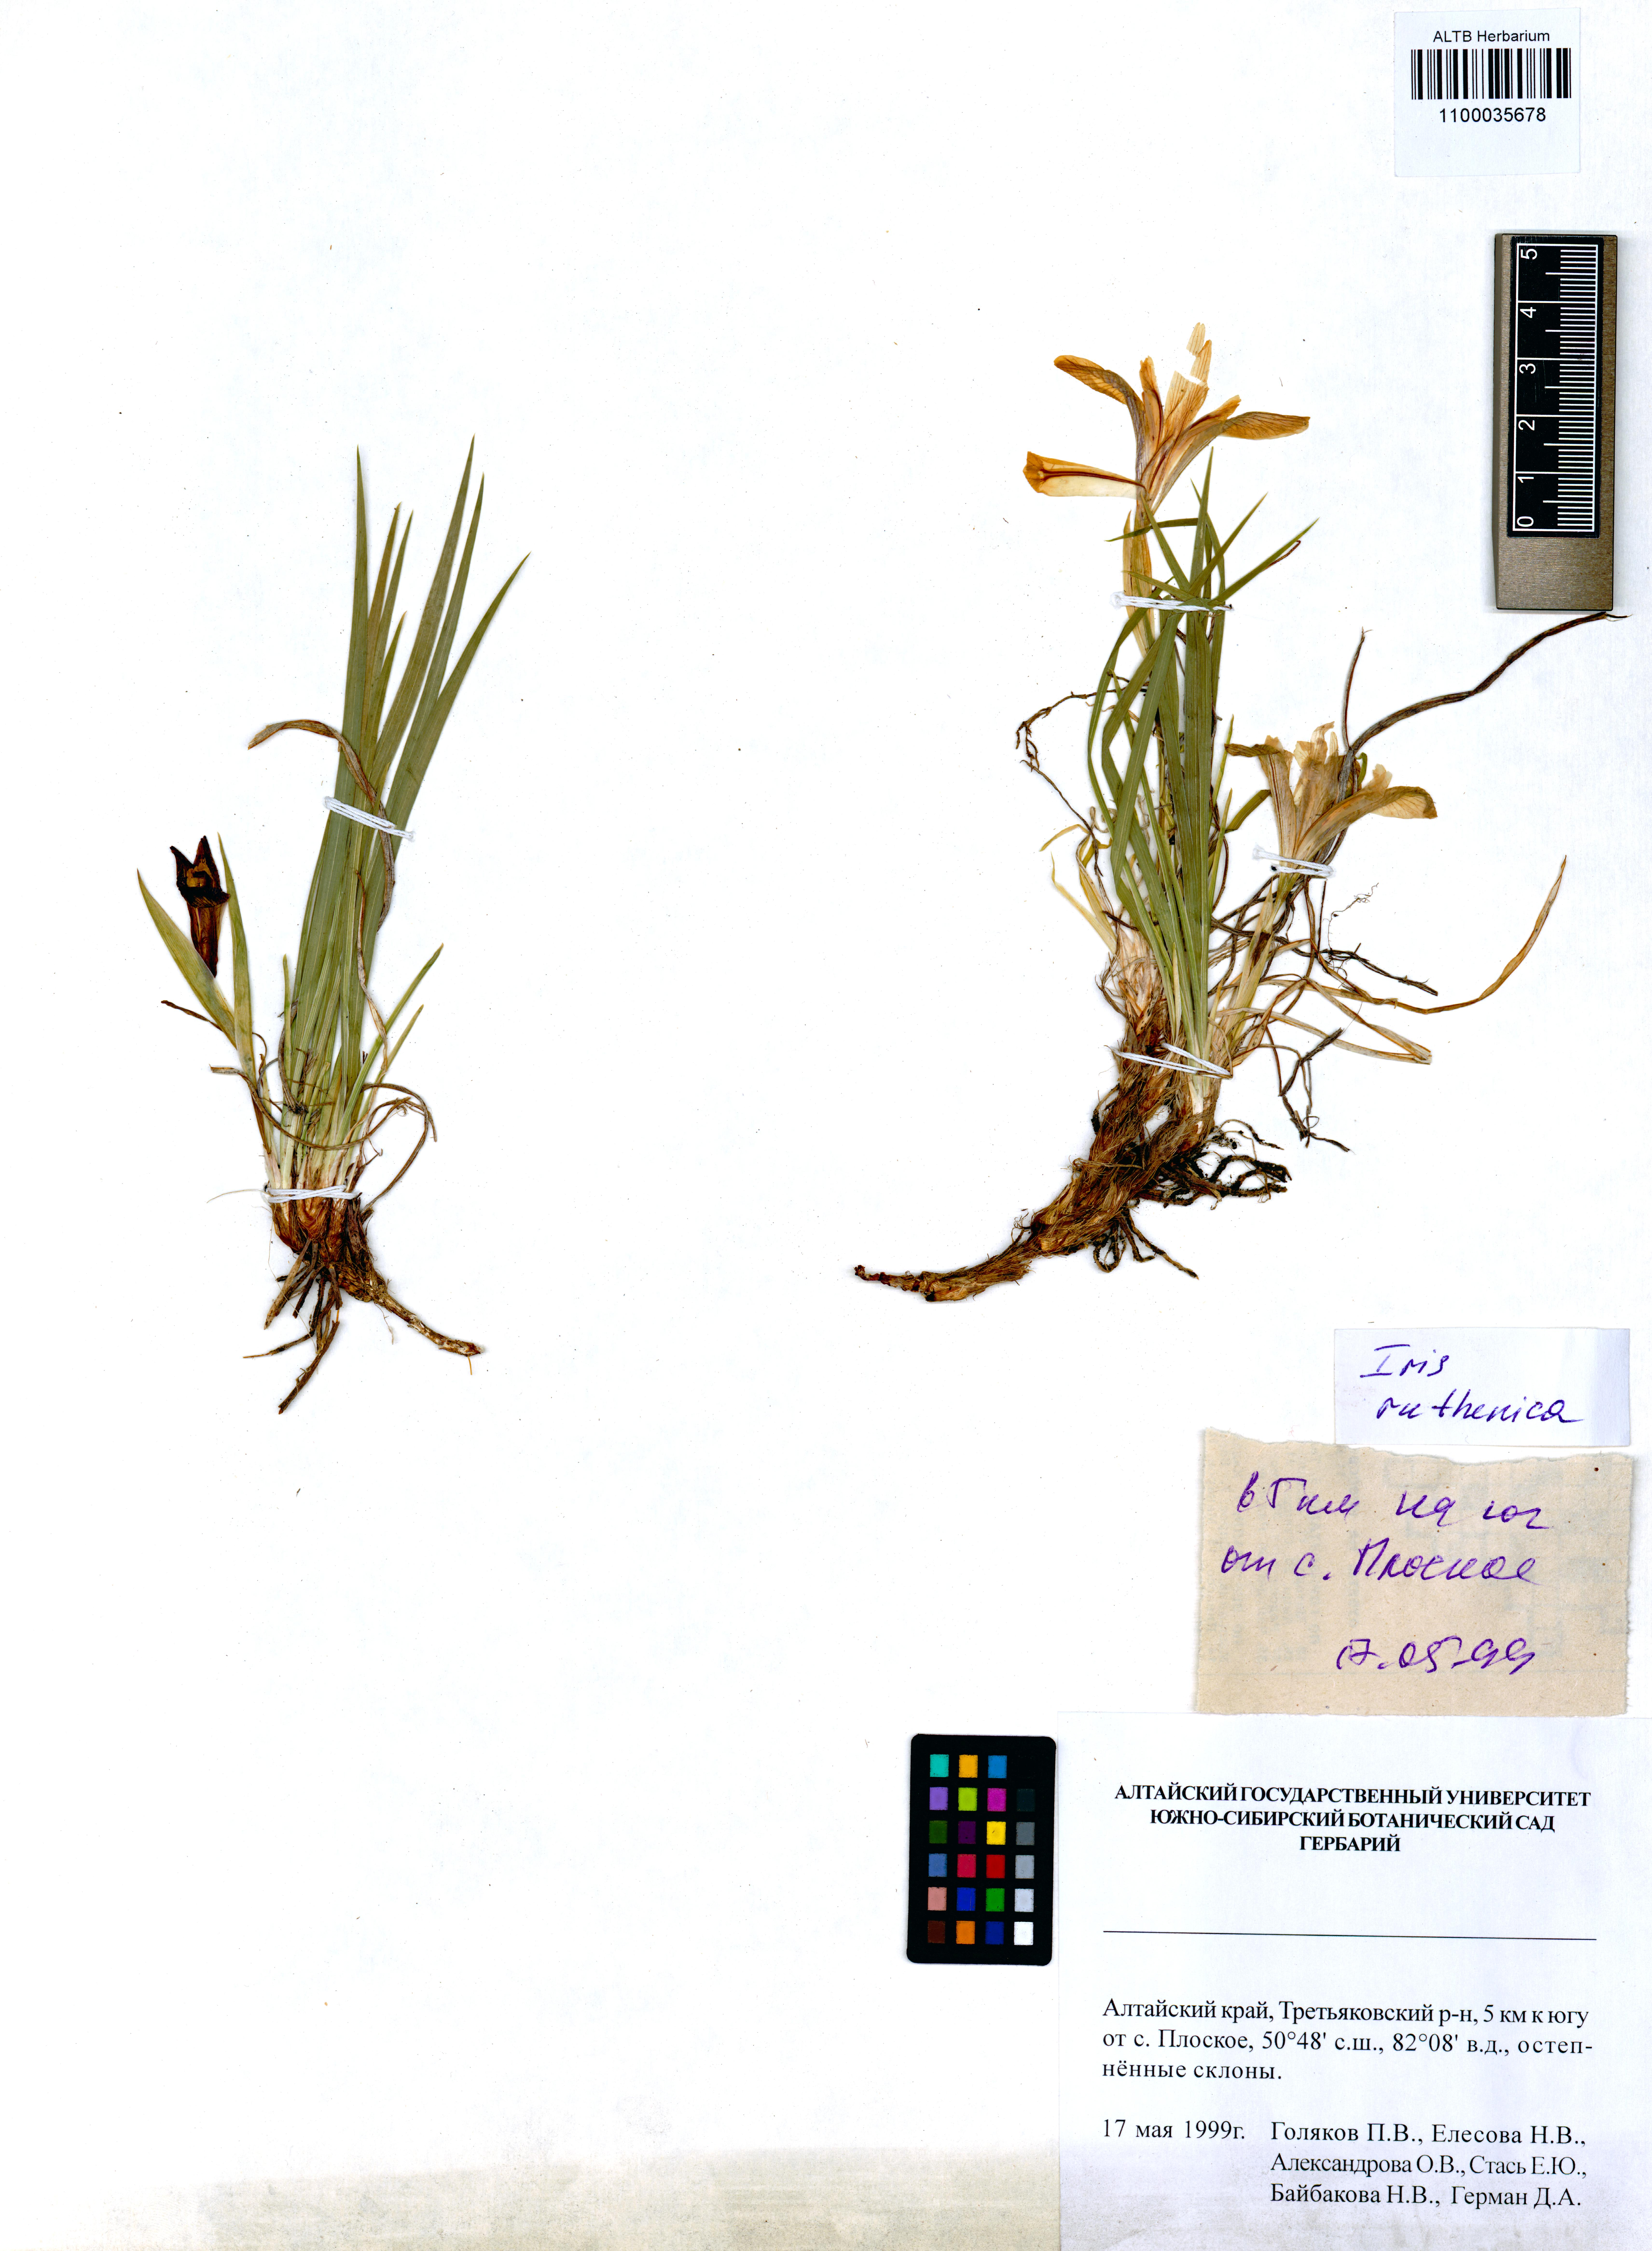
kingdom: Plantae
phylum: Tracheophyta
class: Liliopsida
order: Asparagales
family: Iridaceae
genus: Iris
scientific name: Iris ruthenica
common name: Purple-bract iris
